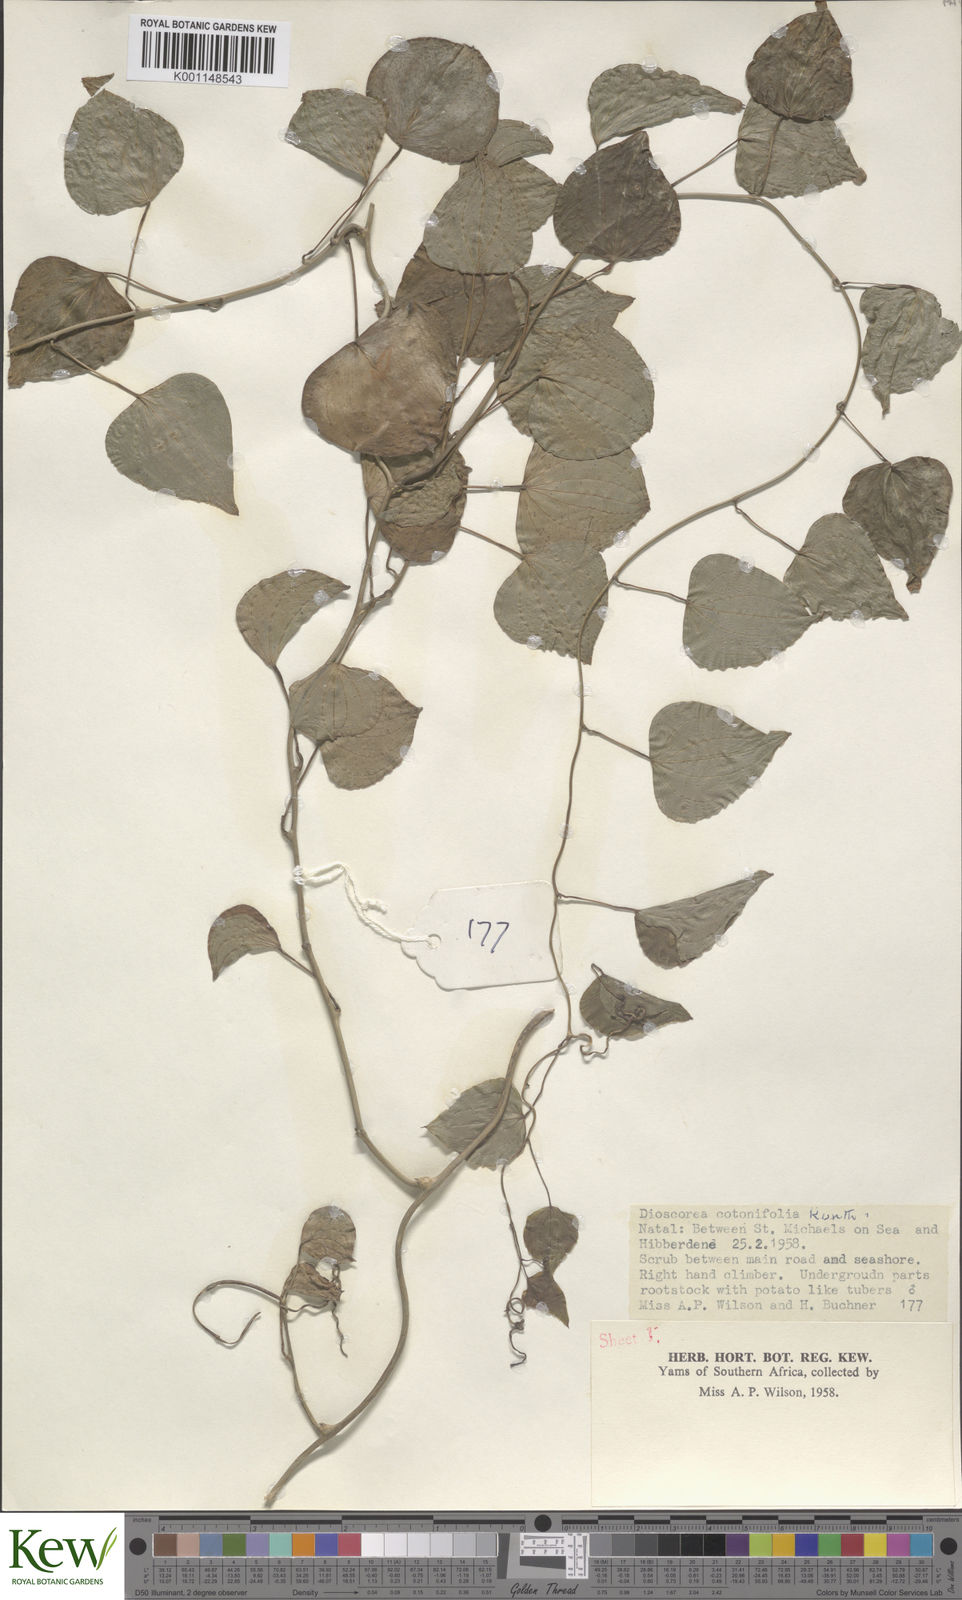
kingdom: Plantae
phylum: Tracheophyta
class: Liliopsida
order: Dioscoreales
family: Dioscoreaceae
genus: Dioscorea
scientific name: Dioscorea cotinifolia
